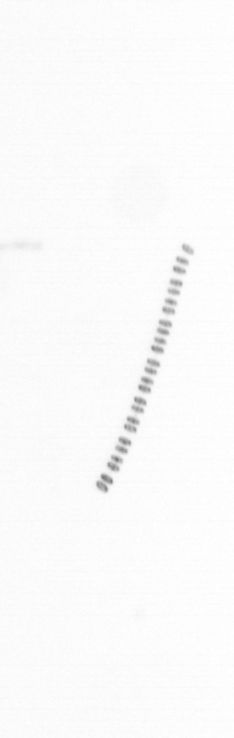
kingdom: Chromista
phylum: Ochrophyta
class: Bacillariophyceae
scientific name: Bacillariophyceae
